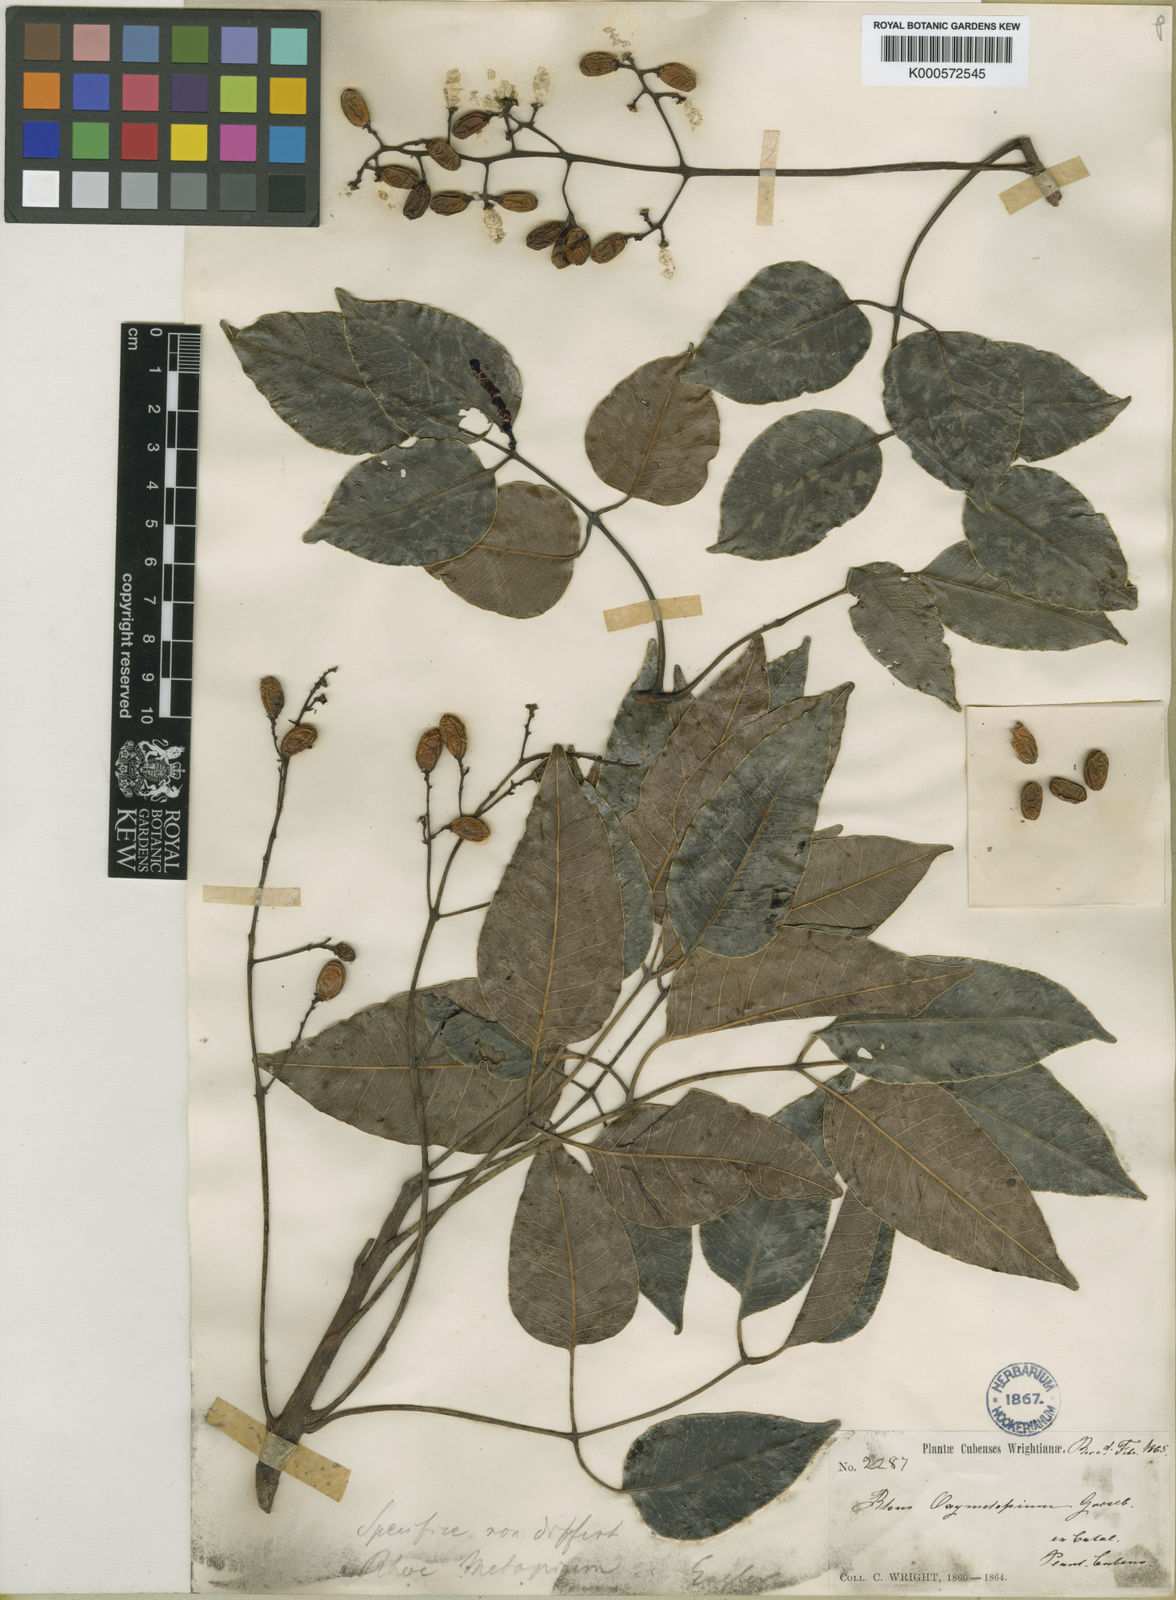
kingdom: Plantae
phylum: Tracheophyta
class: Magnoliopsida
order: Sapindales
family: Anacardiaceae
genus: Metopium
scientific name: Metopium
